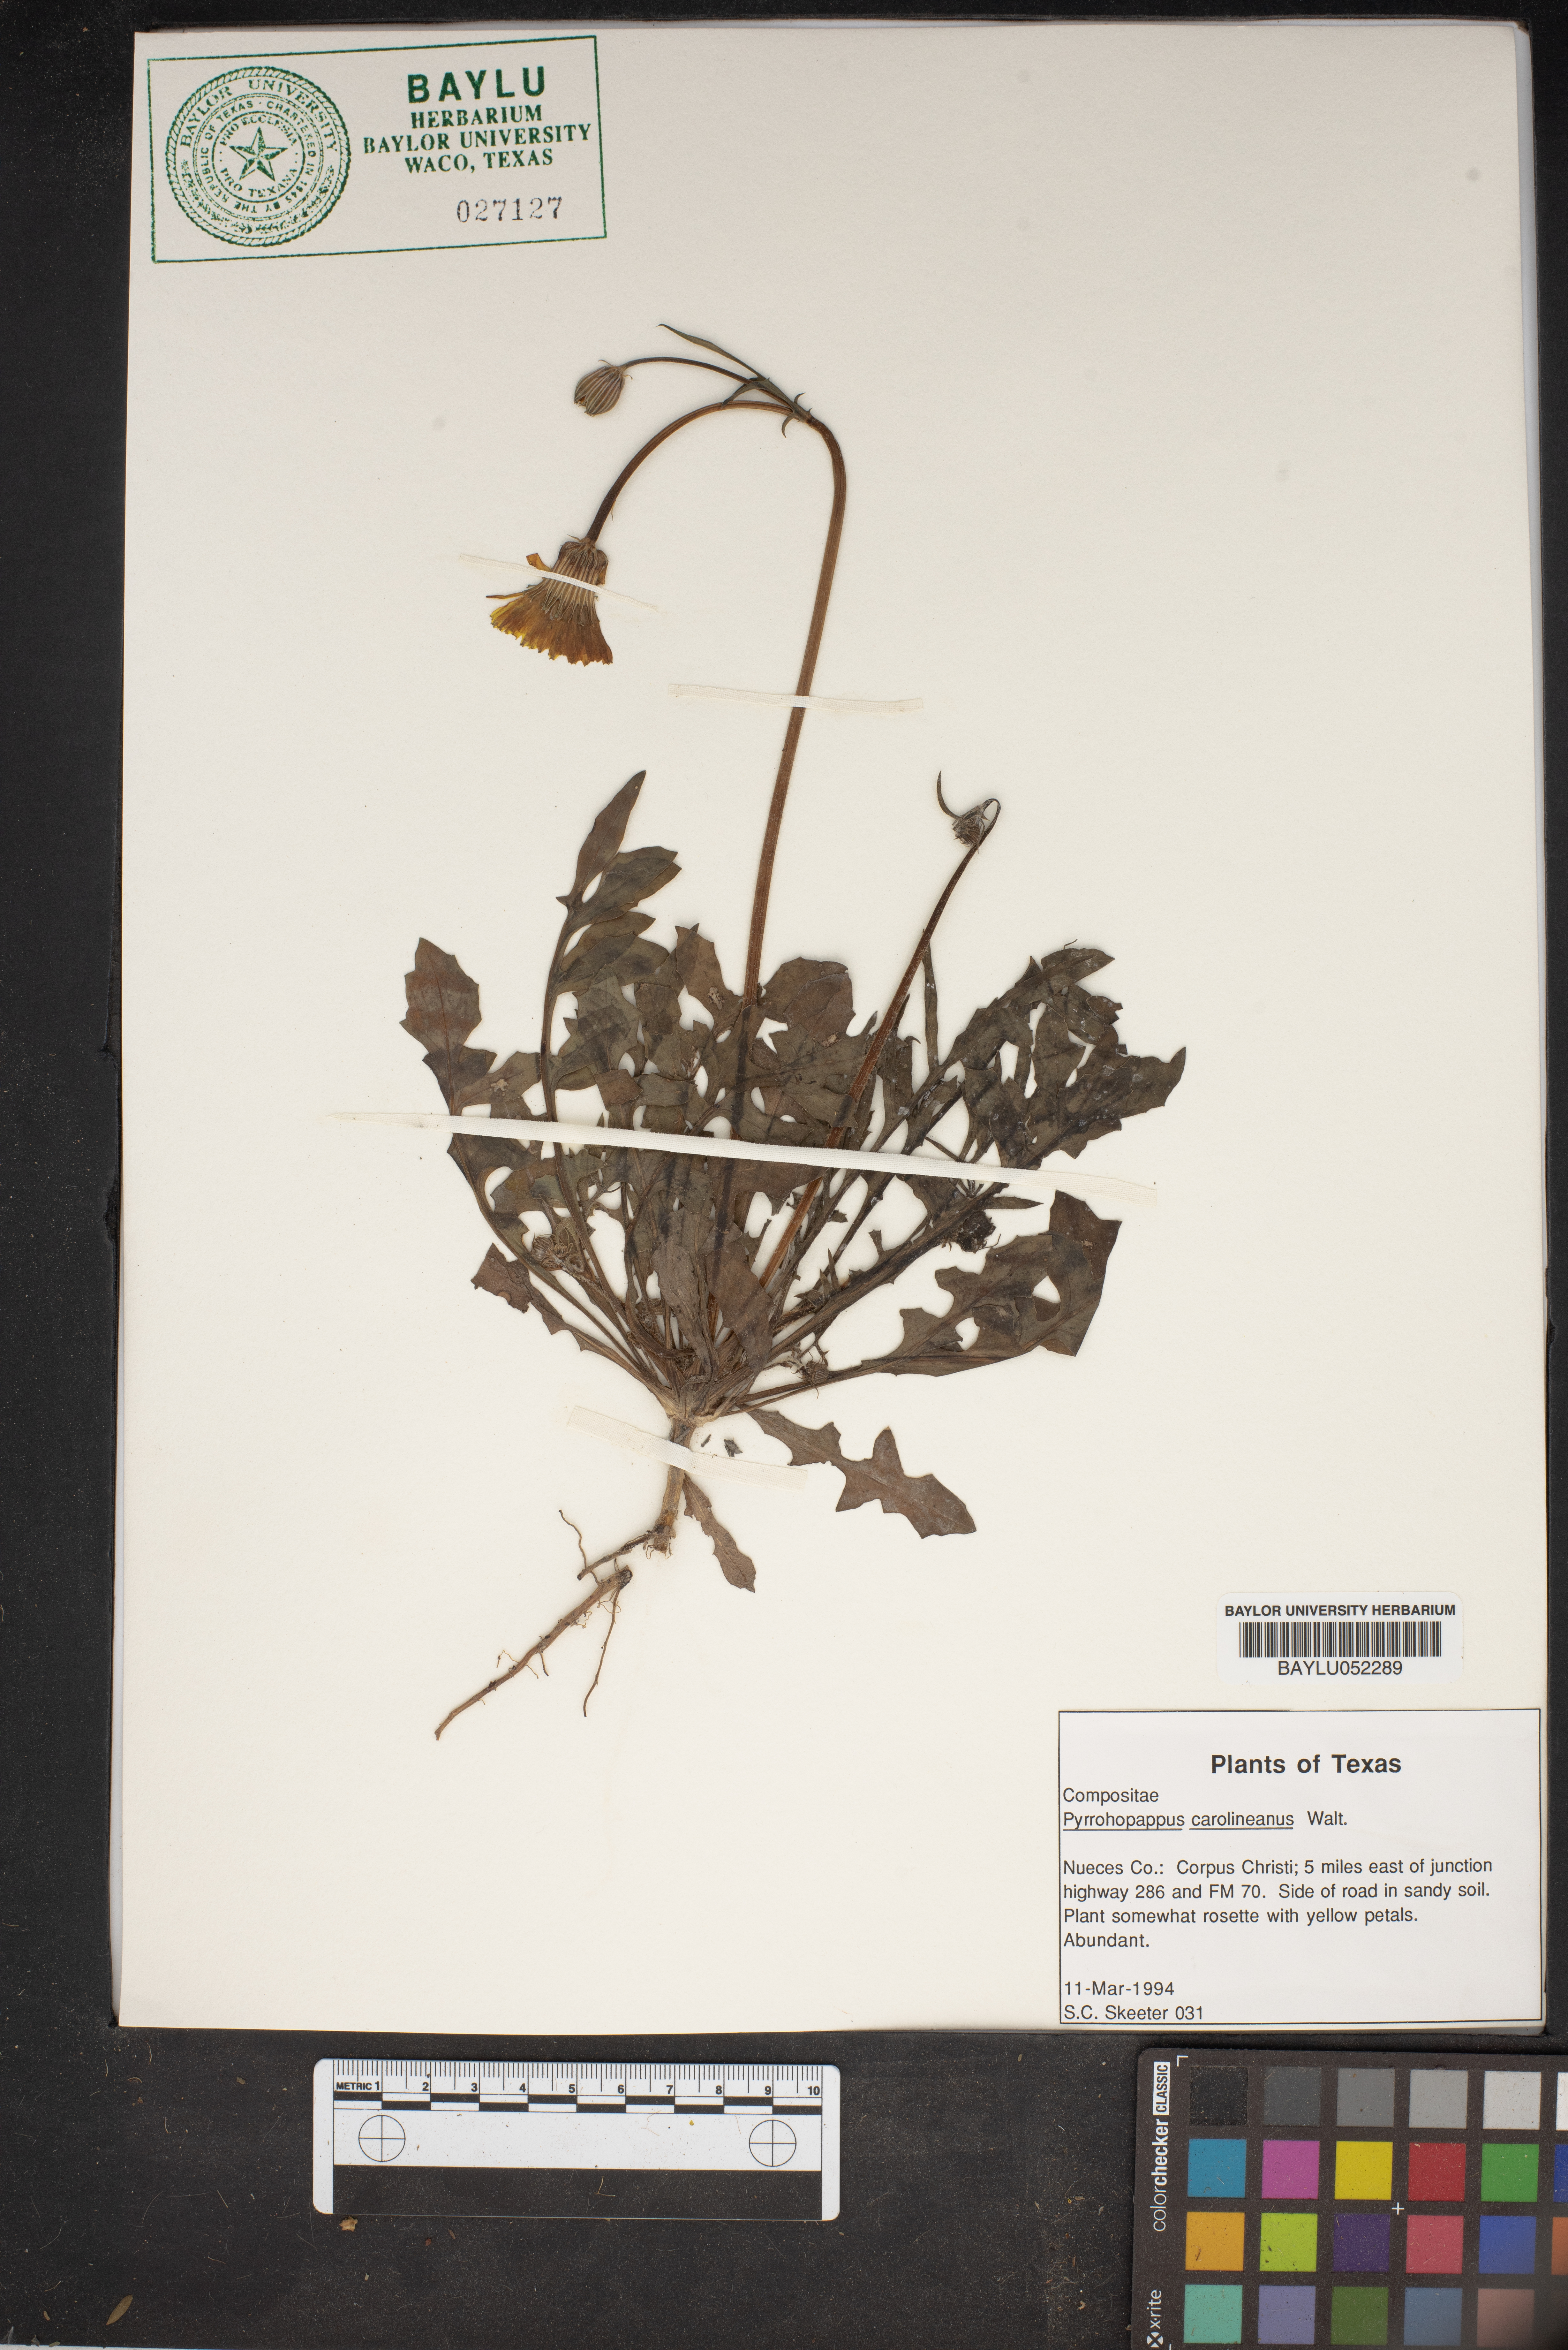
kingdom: Plantae
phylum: Tracheophyta
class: Magnoliopsida
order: Asterales
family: Asteraceae
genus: Pyrrhopappus
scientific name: Pyrrhopappus carolinianus
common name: Carolina desert-chicory
